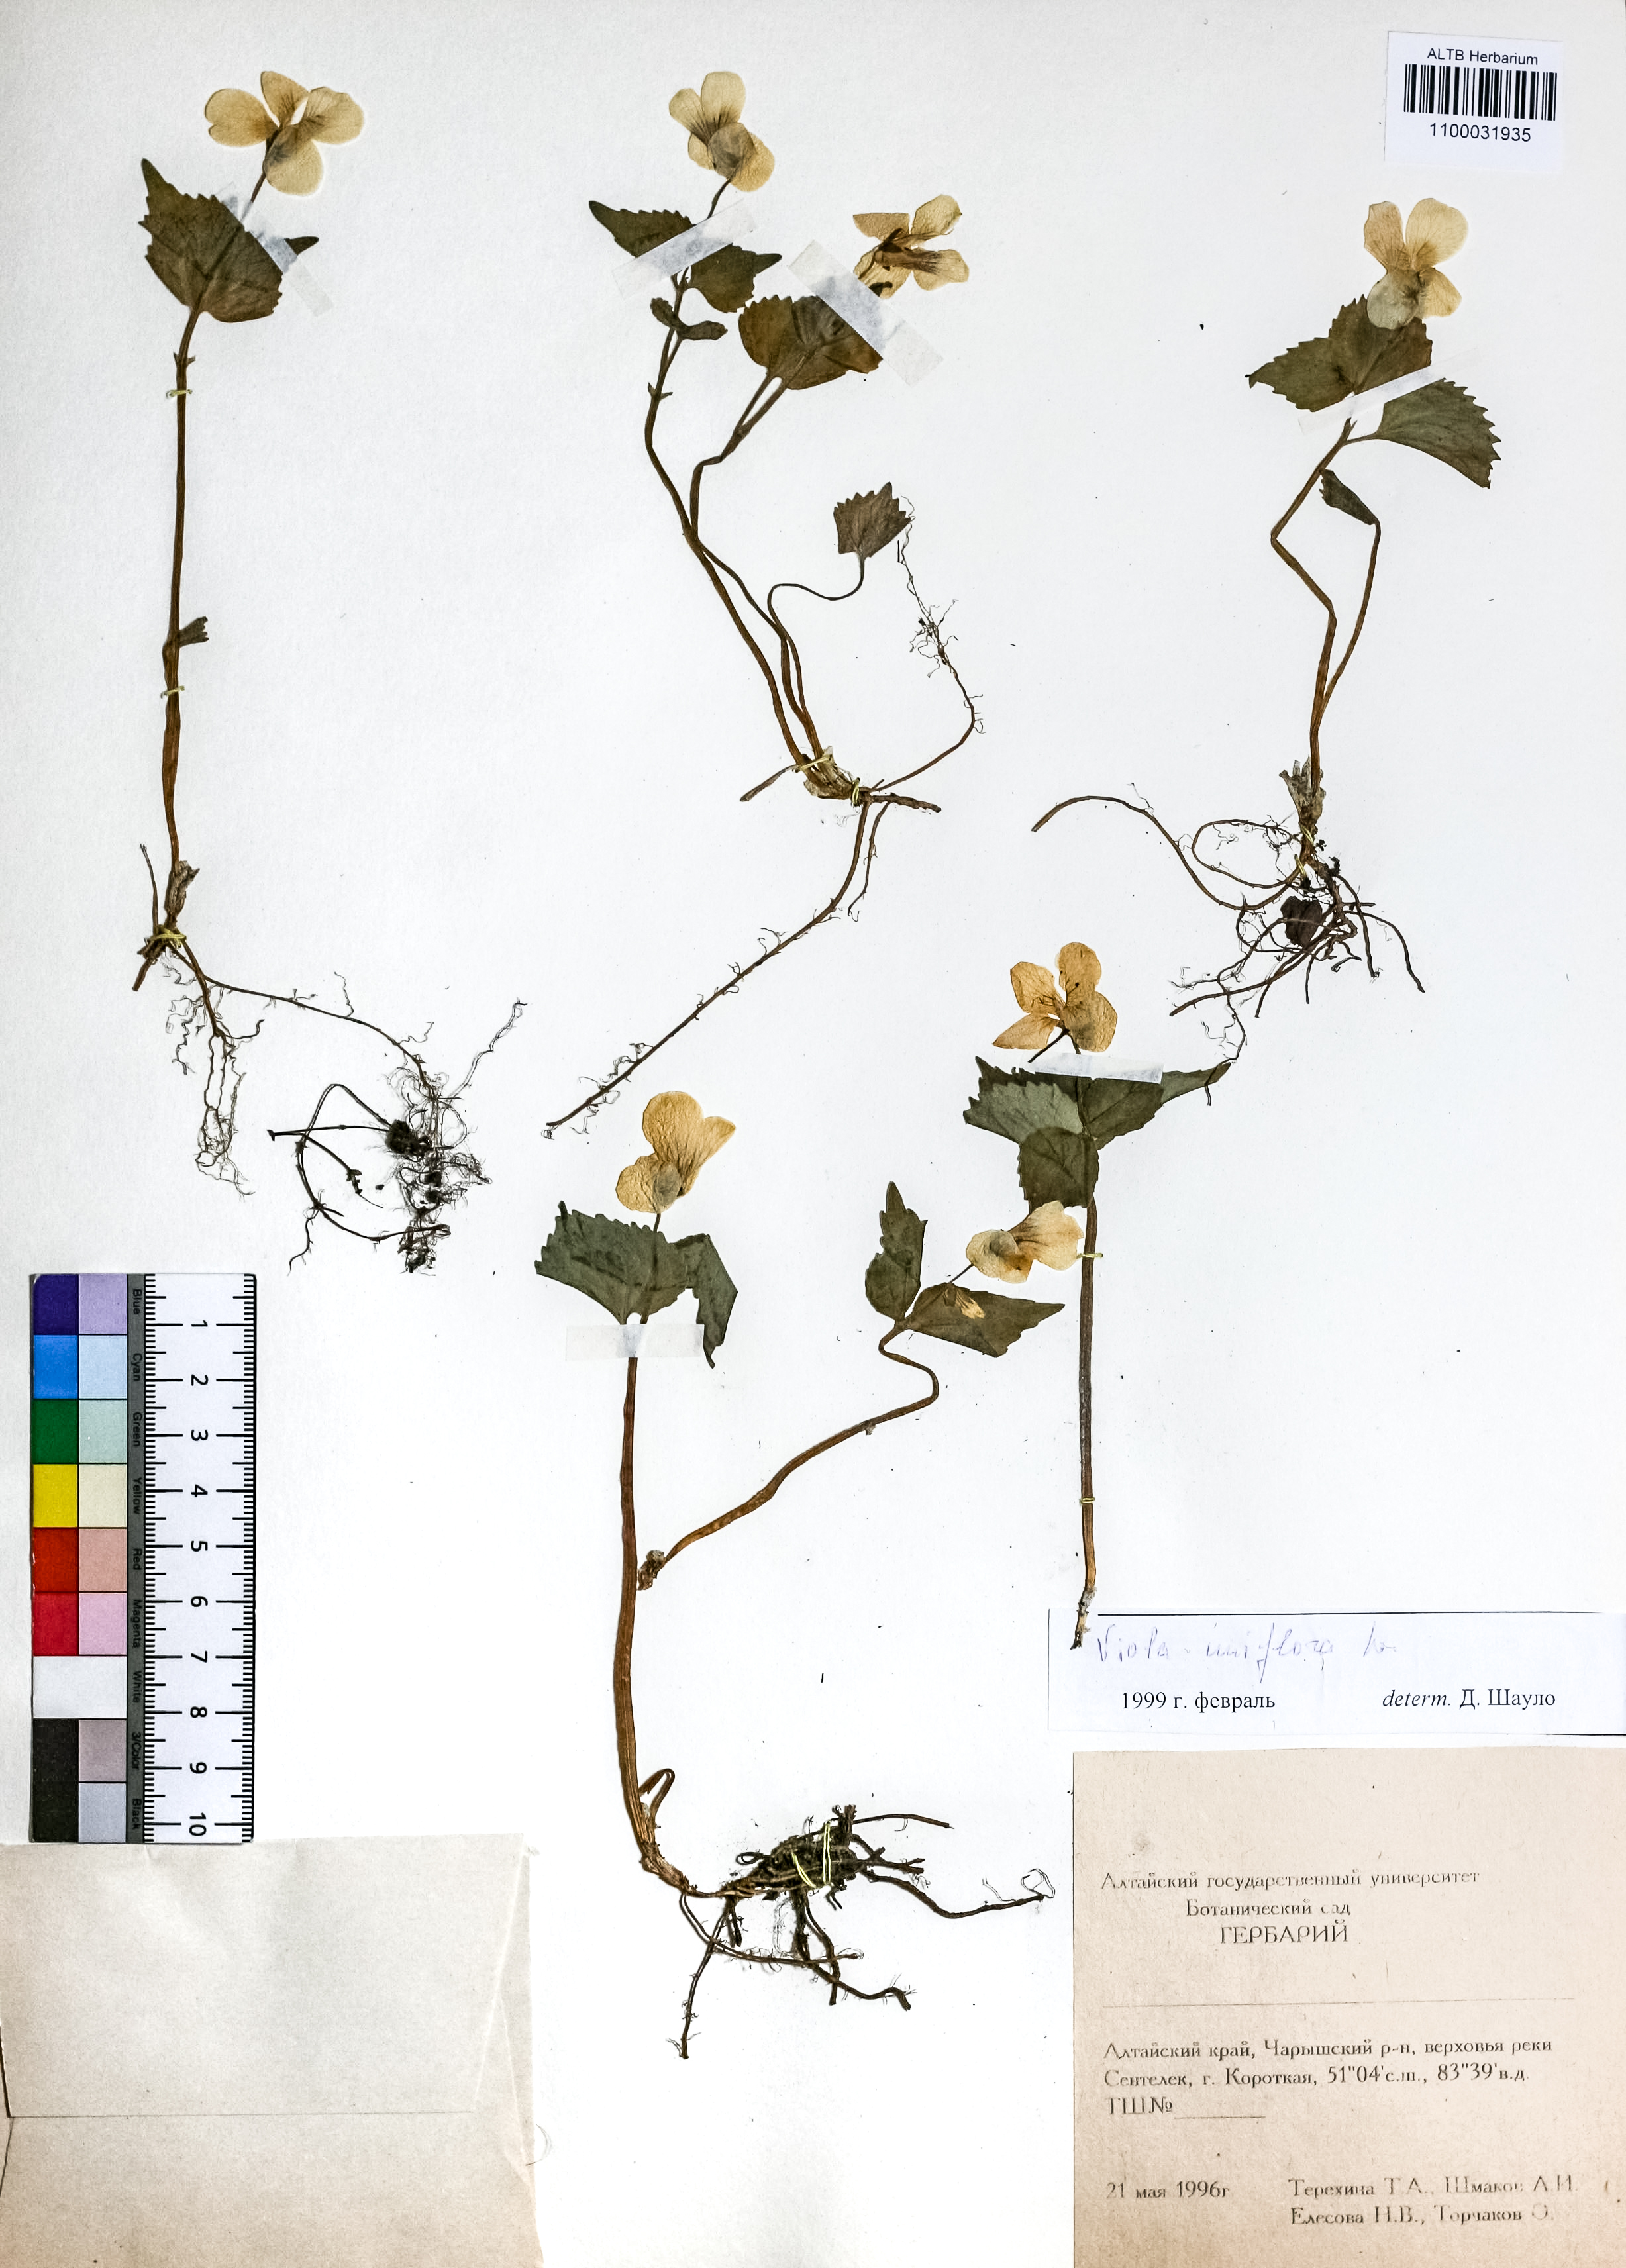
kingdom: Plantae
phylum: Tracheophyta
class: Magnoliopsida
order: Malpighiales
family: Violaceae
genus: Viola
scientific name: Viola uniflora
